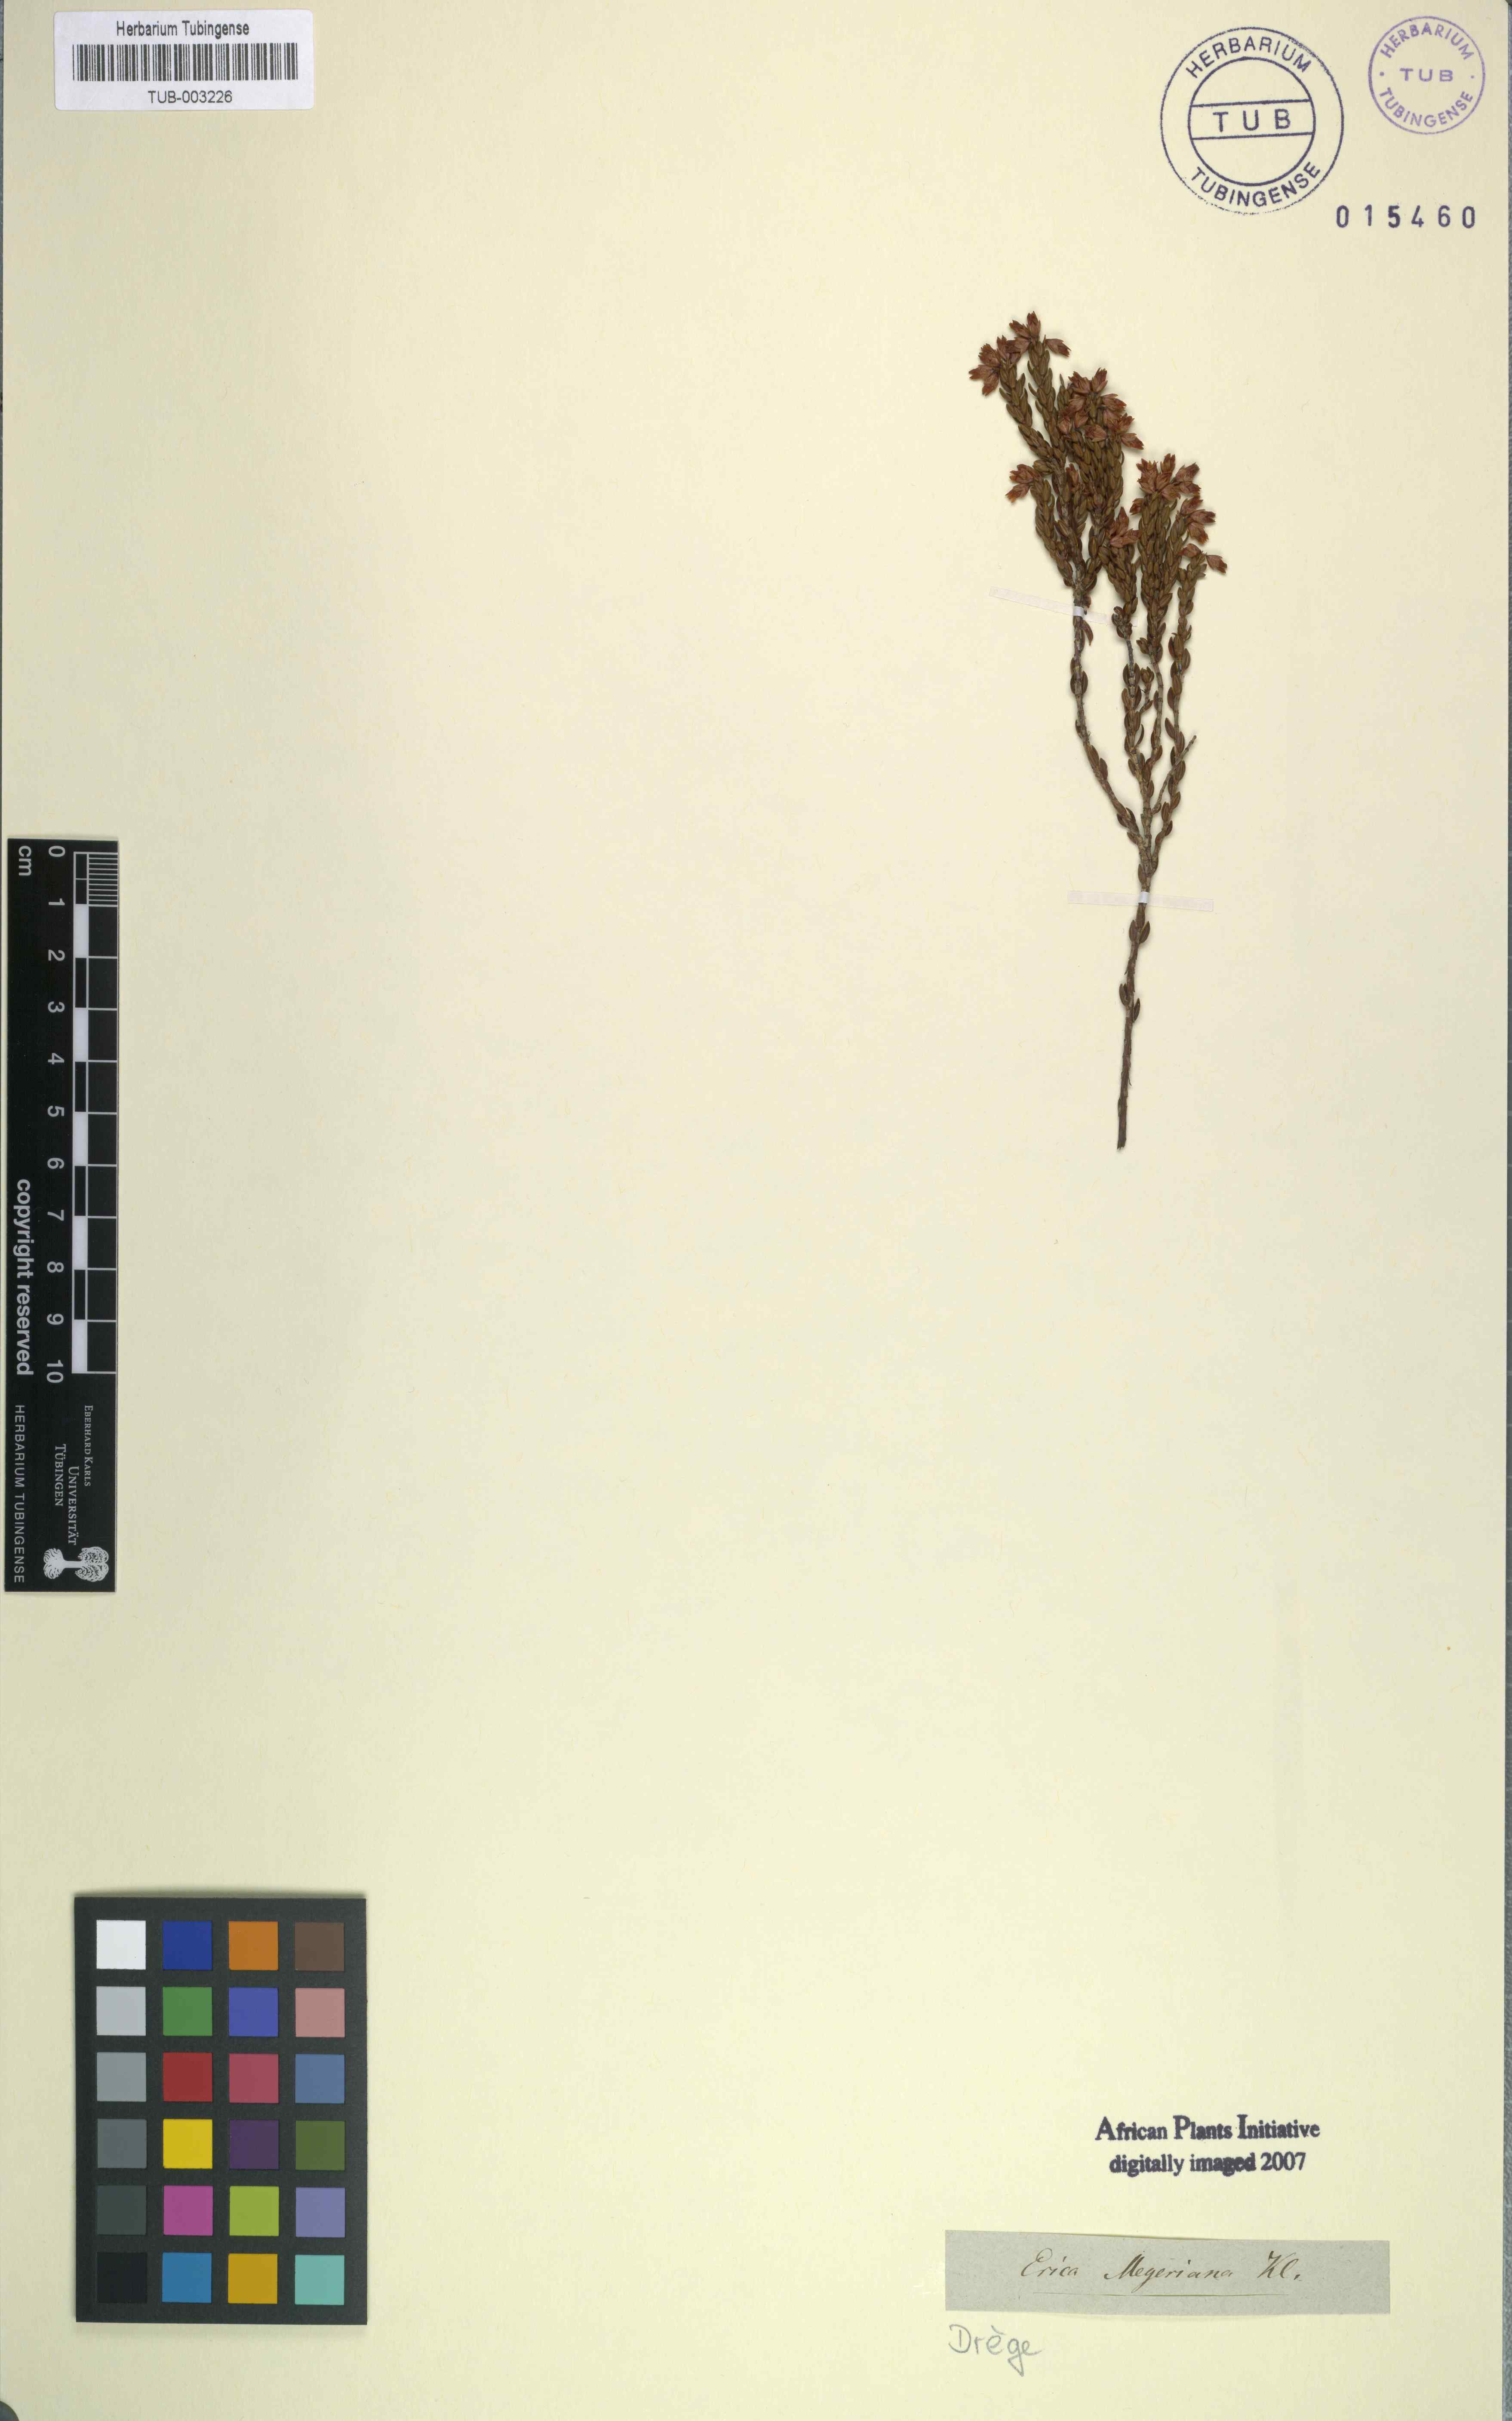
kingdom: Plantae
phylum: Tracheophyta
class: Magnoliopsida
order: Ericales
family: Ericaceae
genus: Erica
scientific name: Erica articularis
